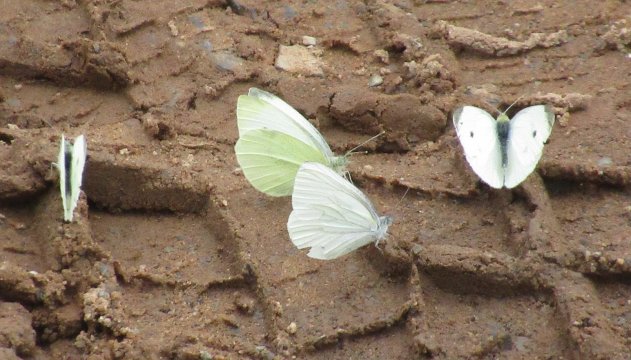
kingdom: Animalia
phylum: Arthropoda
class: Insecta
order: Lepidoptera
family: Pieridae
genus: Pieris
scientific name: Pieris rapae
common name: Cabbage White
